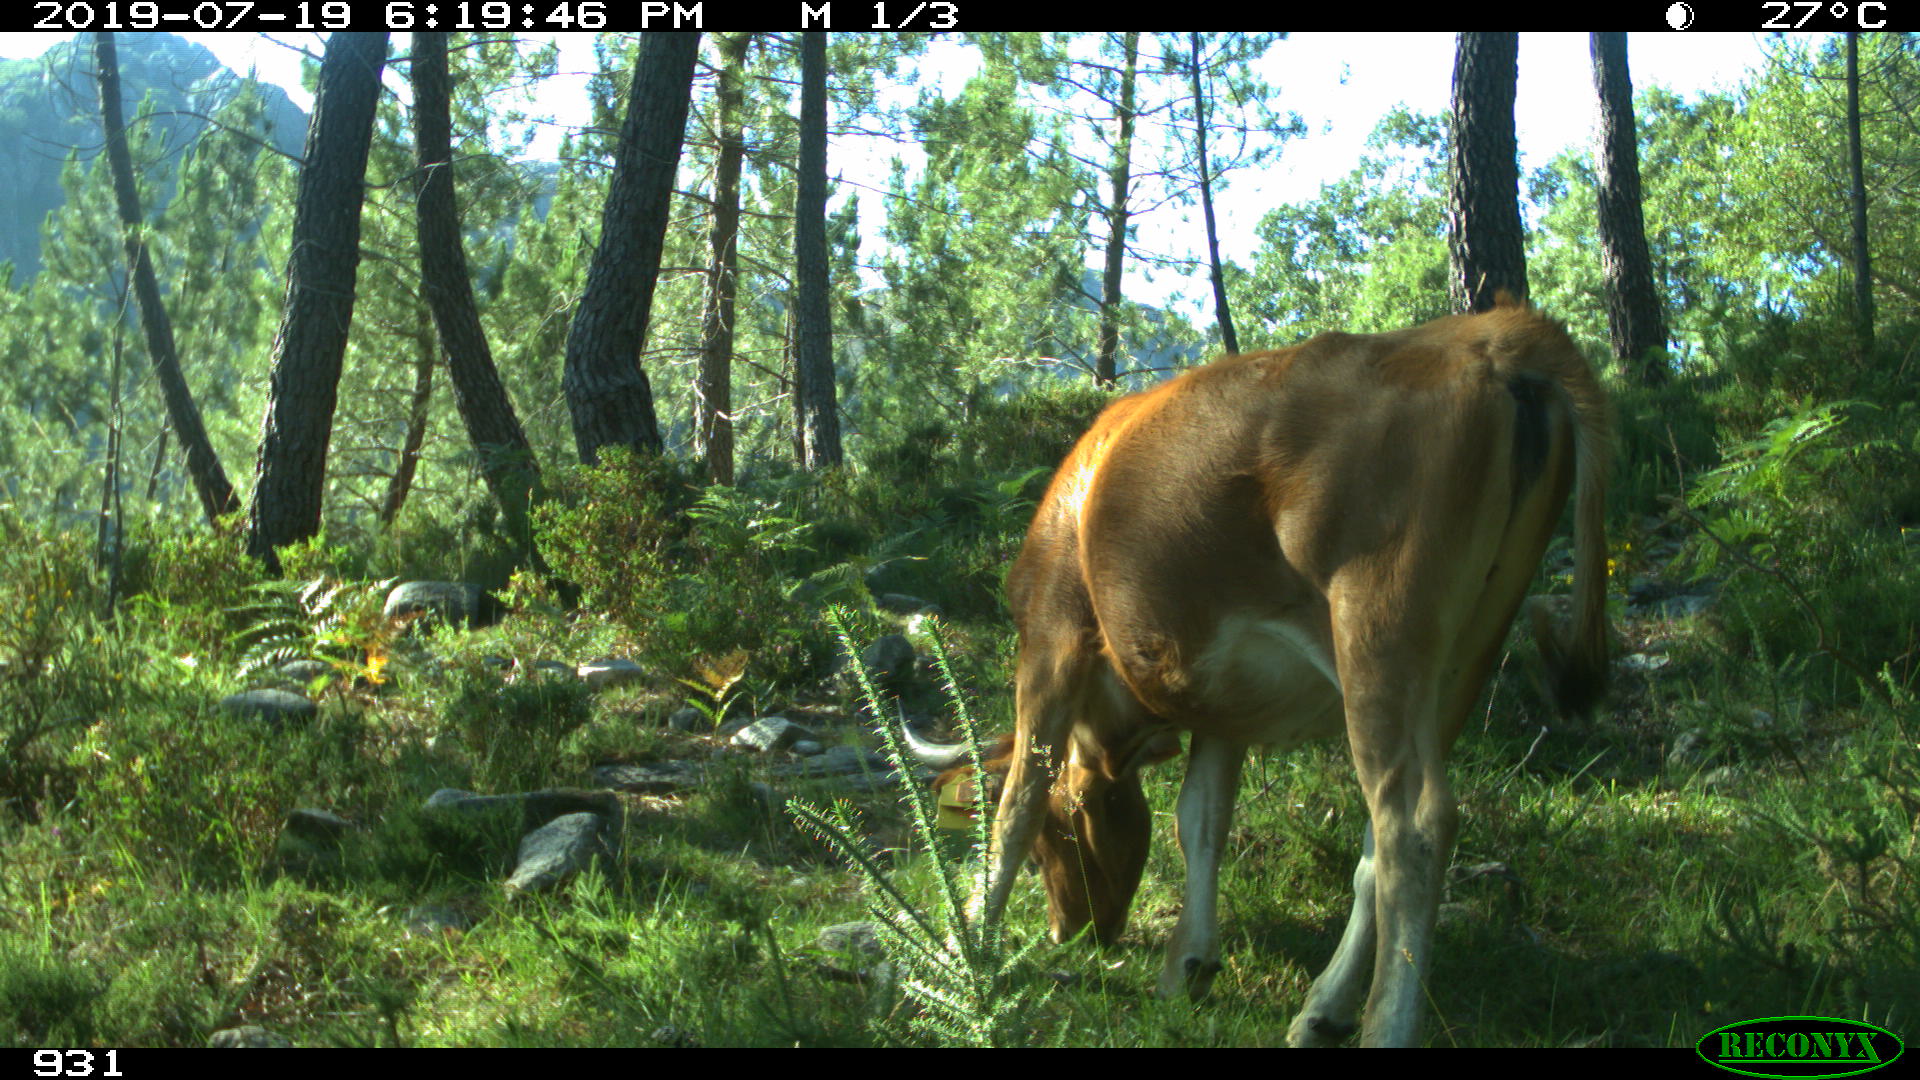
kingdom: Animalia
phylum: Chordata
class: Mammalia
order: Artiodactyla
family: Bovidae
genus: Bos
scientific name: Bos taurus
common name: Domesticated cattle
